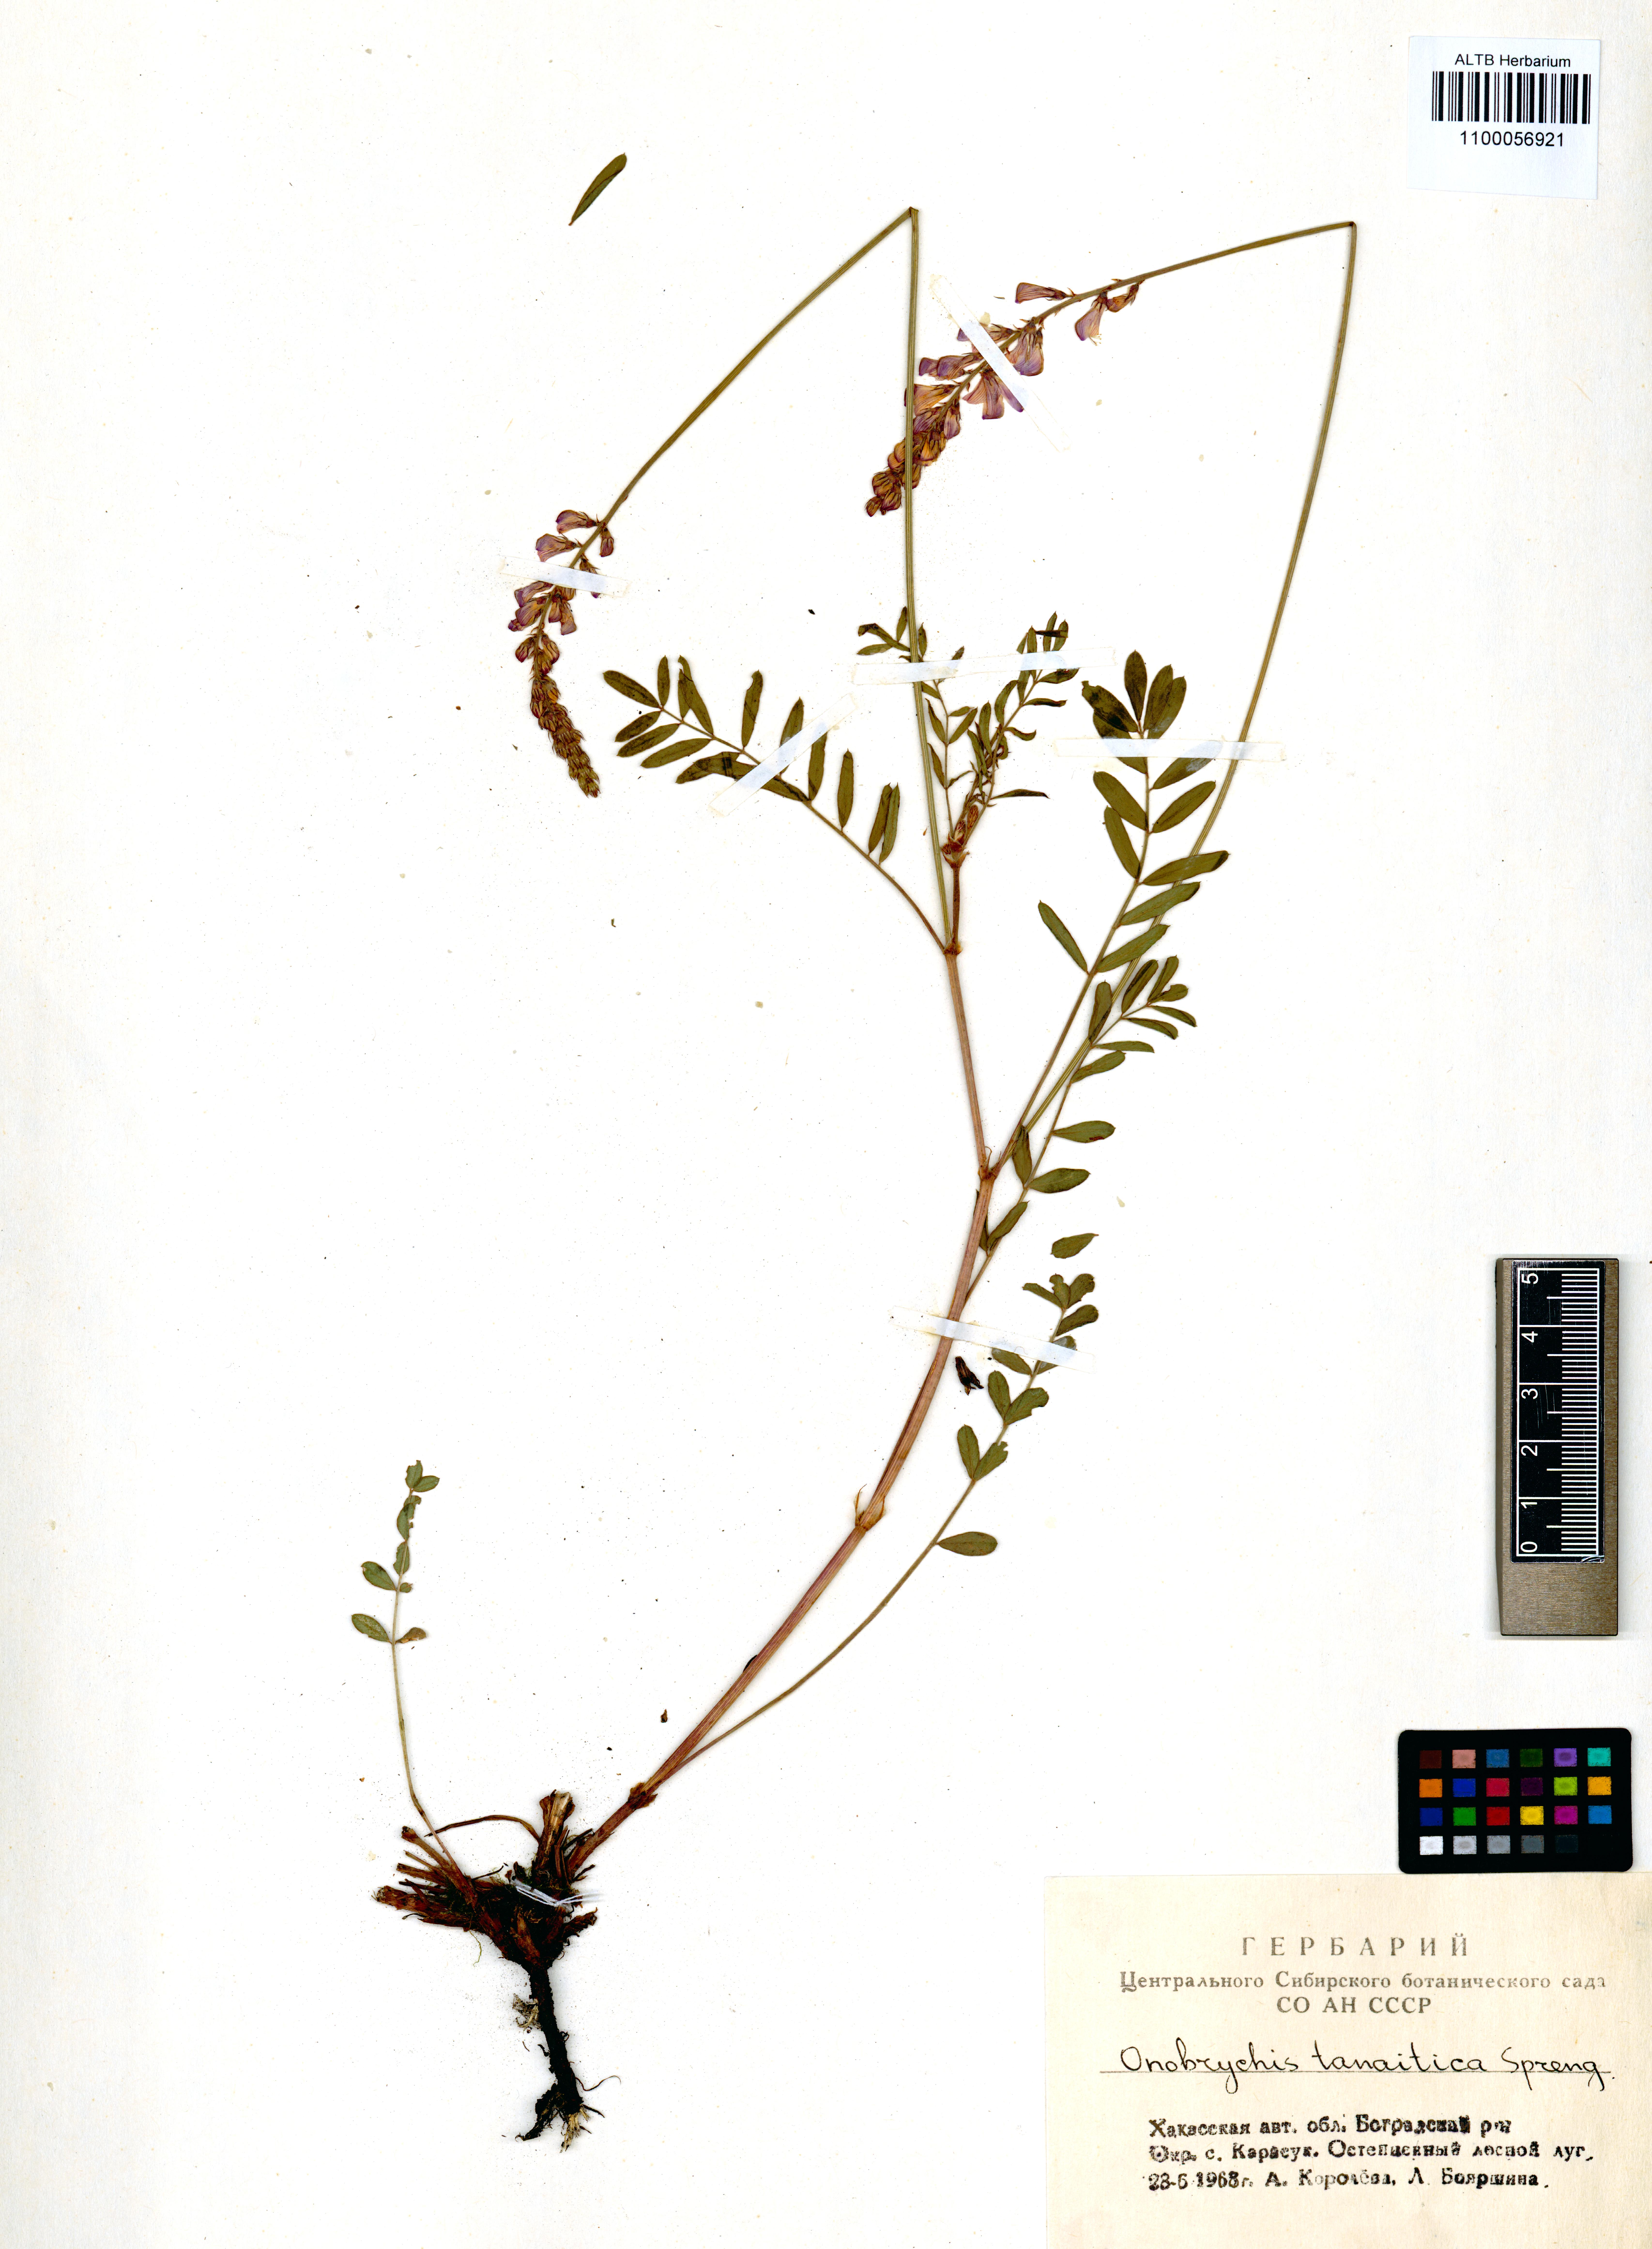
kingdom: Plantae
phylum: Tracheophyta
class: Magnoliopsida
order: Fabales
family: Fabaceae
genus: Onobrychis
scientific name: Onobrychis arenaria
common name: Sand esparcet
